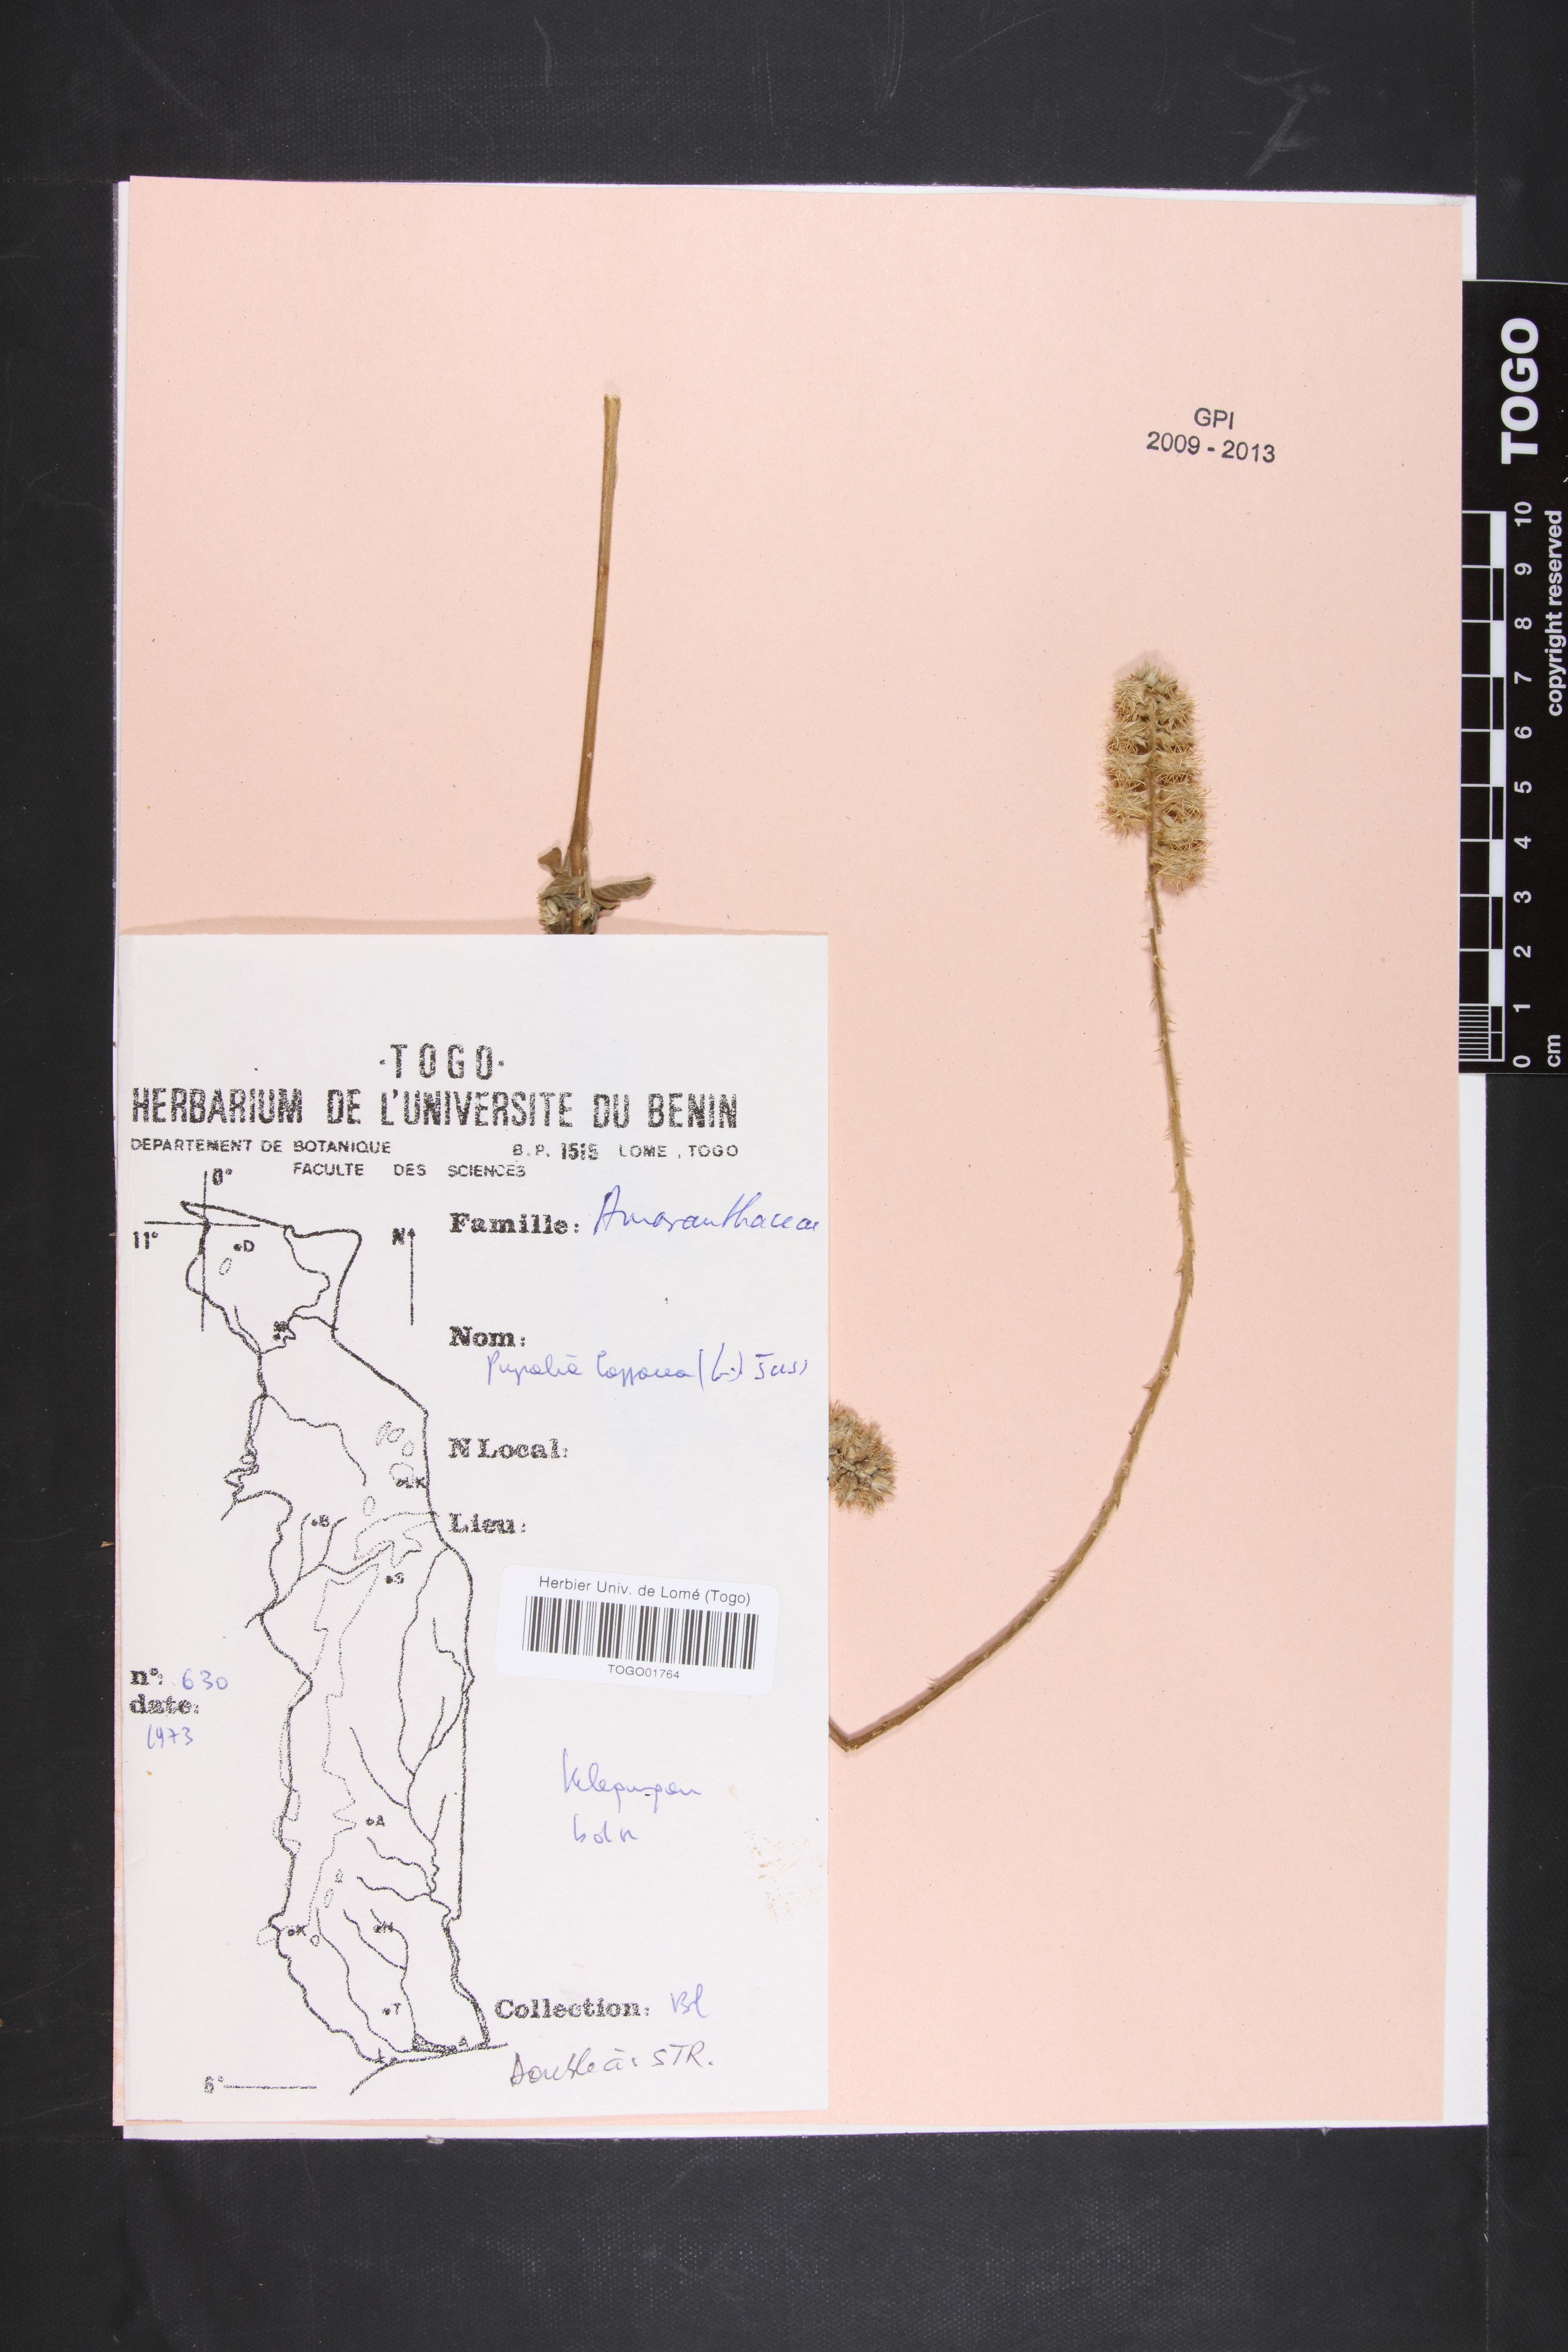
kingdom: Plantae
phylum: Tracheophyta
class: Magnoliopsida
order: Caryophyllales
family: Amaranthaceae
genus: Pupalia
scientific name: Pupalia lappacea
